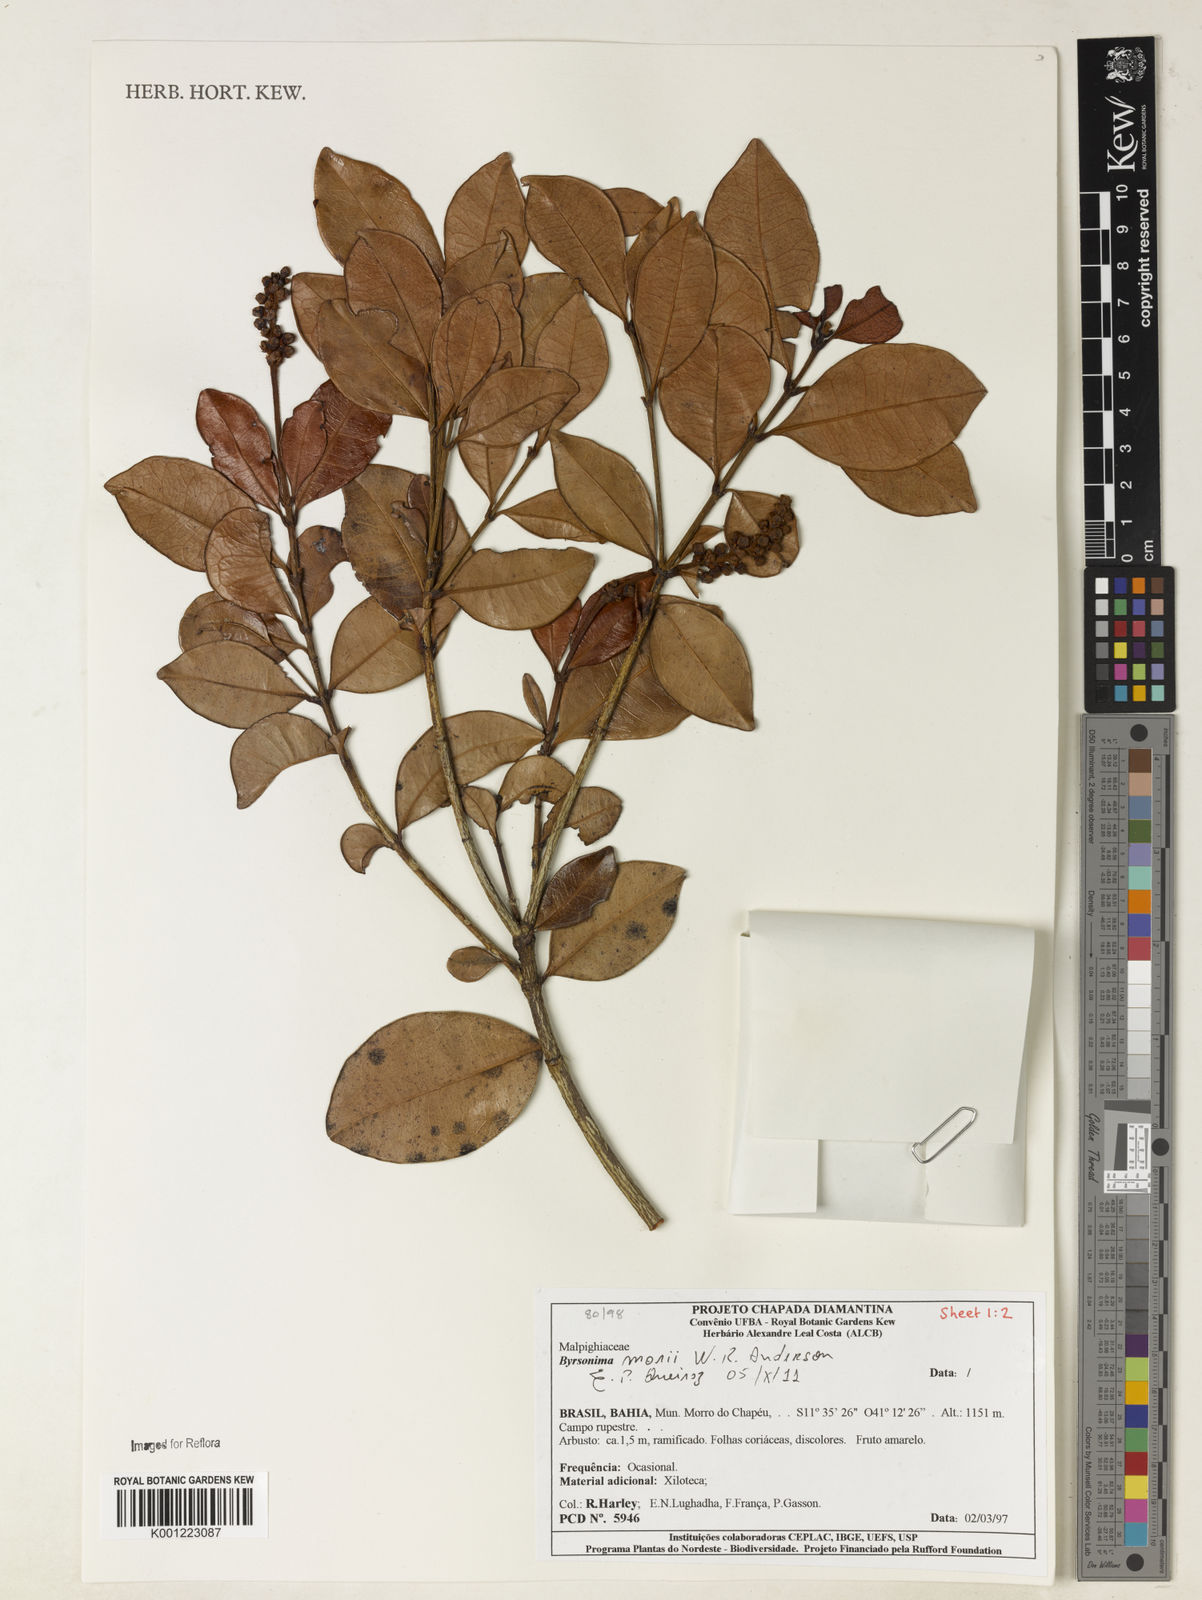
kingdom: Plantae
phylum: Tracheophyta
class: Magnoliopsida
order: Malpighiales
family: Malpighiaceae
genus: Byrsonima
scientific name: Byrsonima morii
